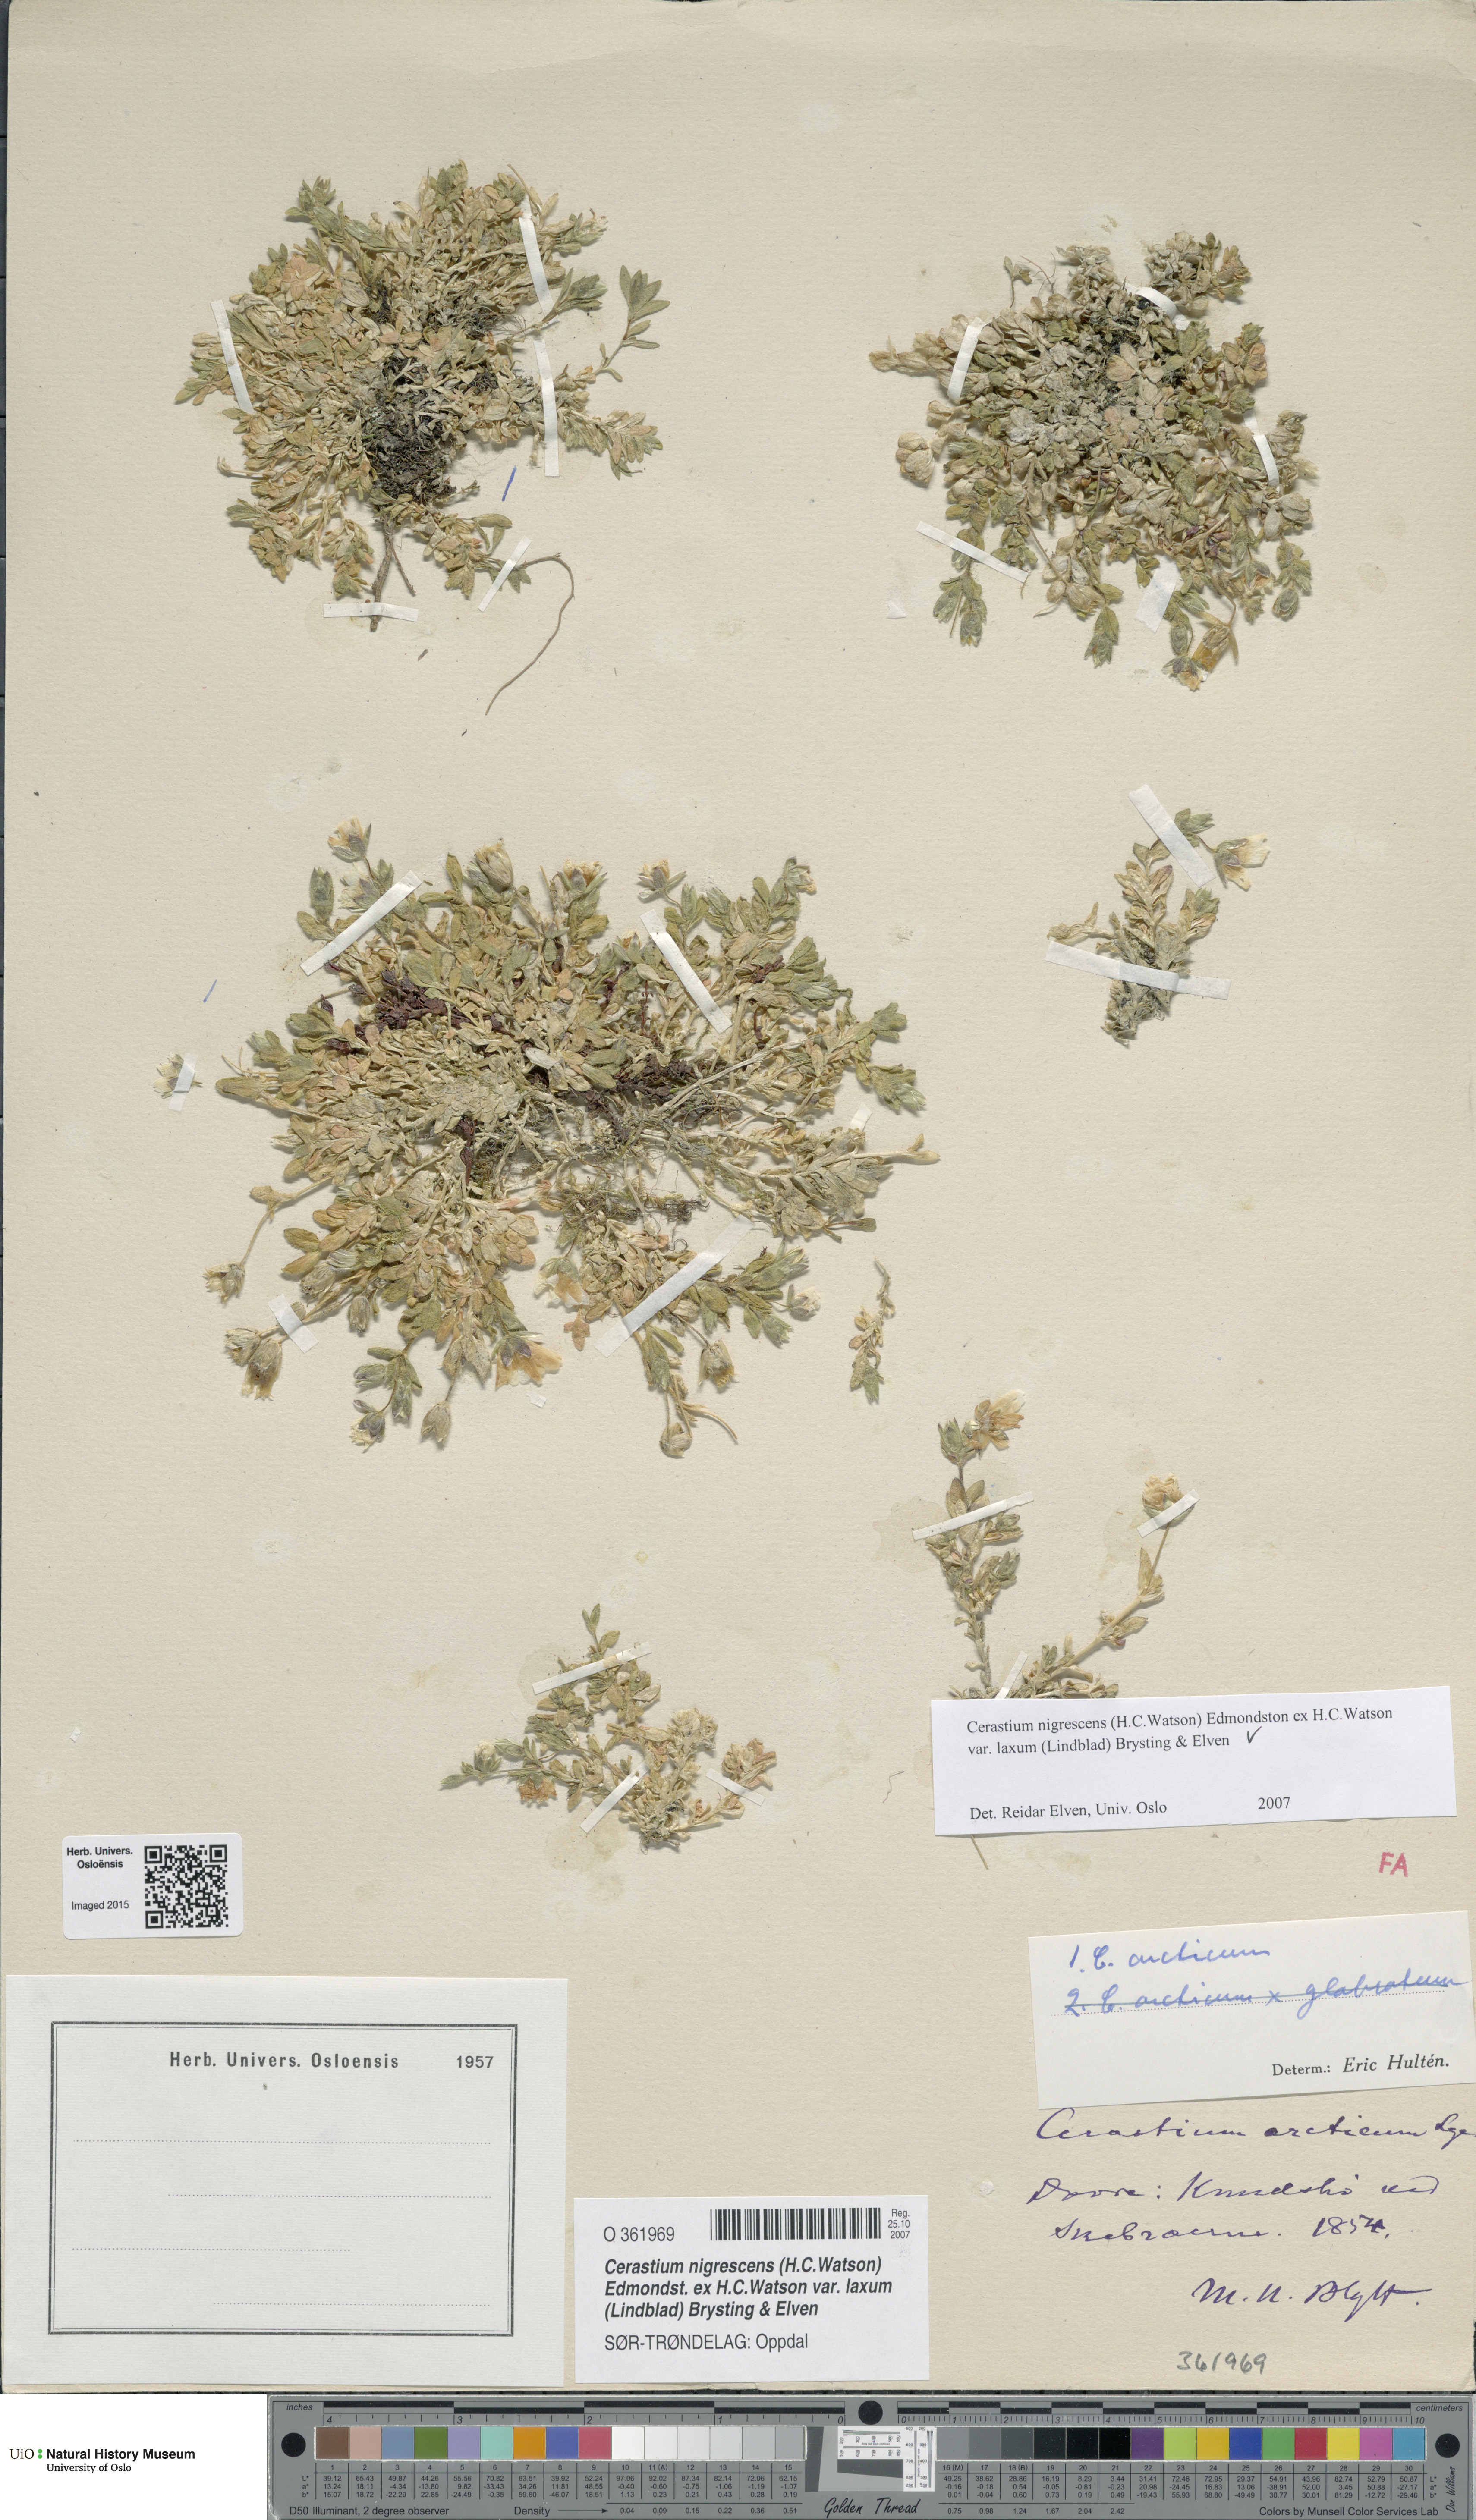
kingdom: Plantae
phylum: Tracheophyta
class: Magnoliopsida
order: Caryophyllales
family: Caryophyllaceae
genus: Cerastium
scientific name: Cerastium nigrescens
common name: Shetland mouse-ear
